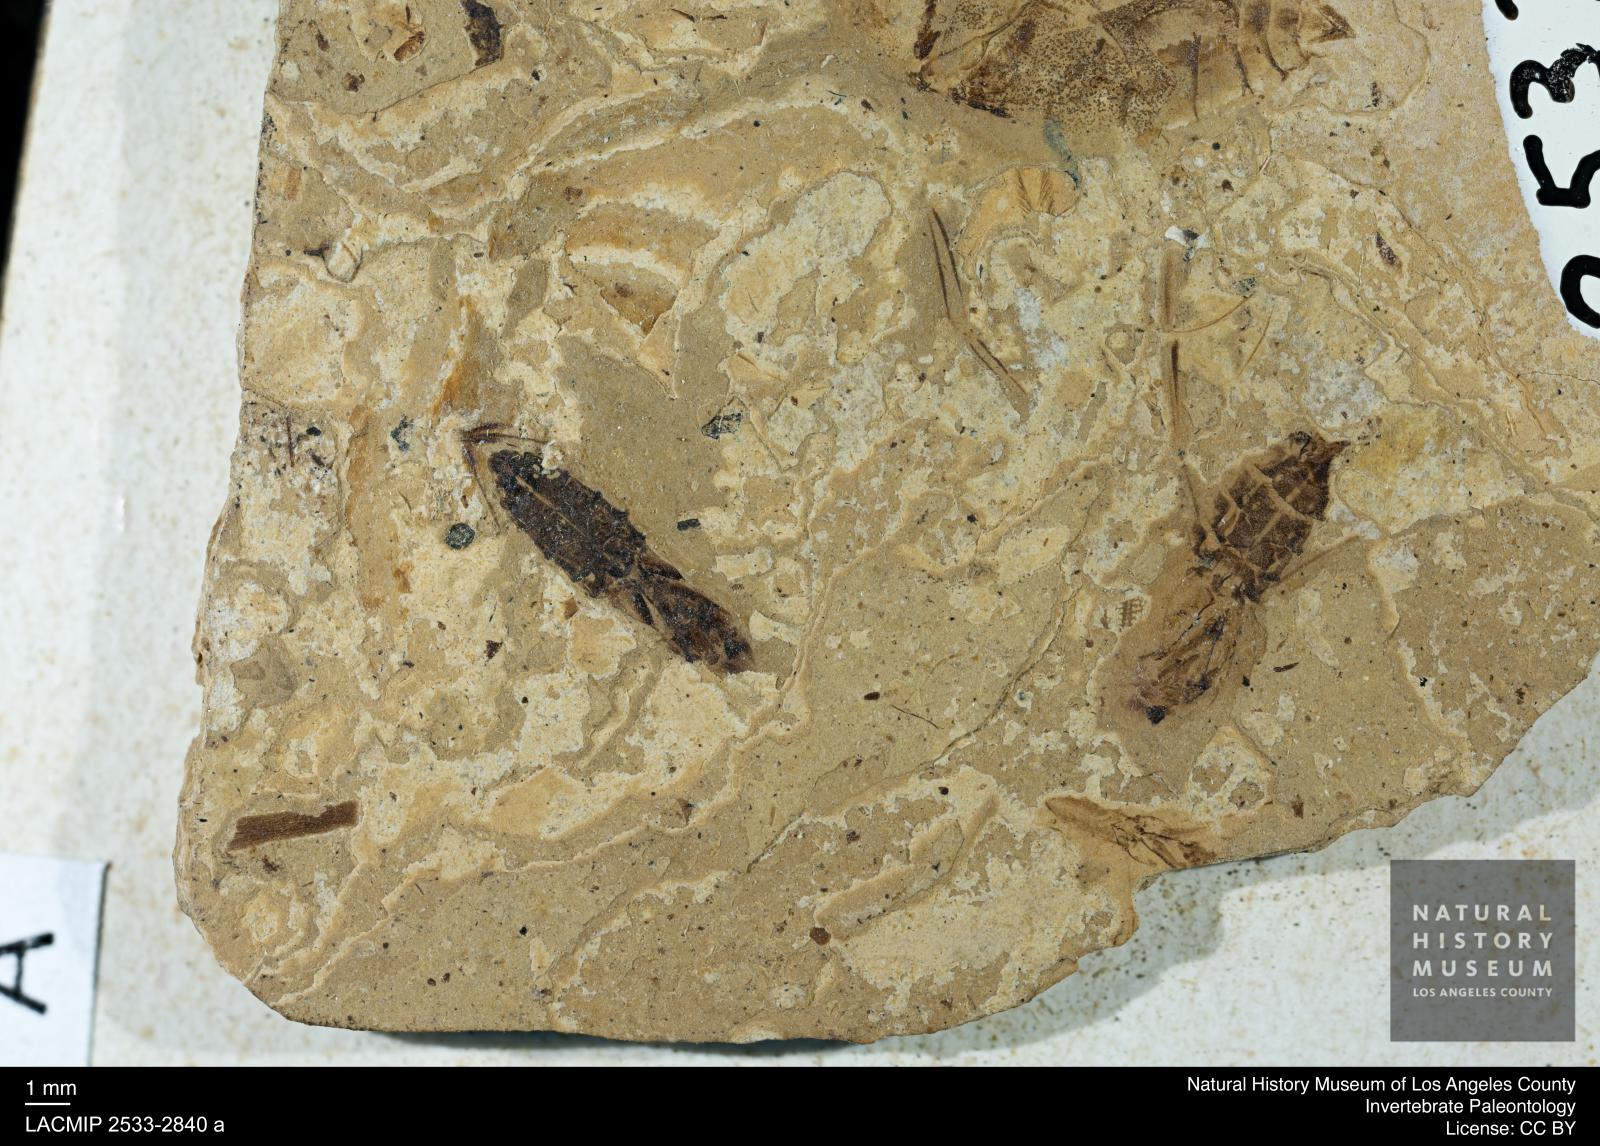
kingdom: Animalia
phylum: Arthropoda
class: Insecta
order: Hemiptera
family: Notonectidae
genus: Notonecta
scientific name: Notonecta
